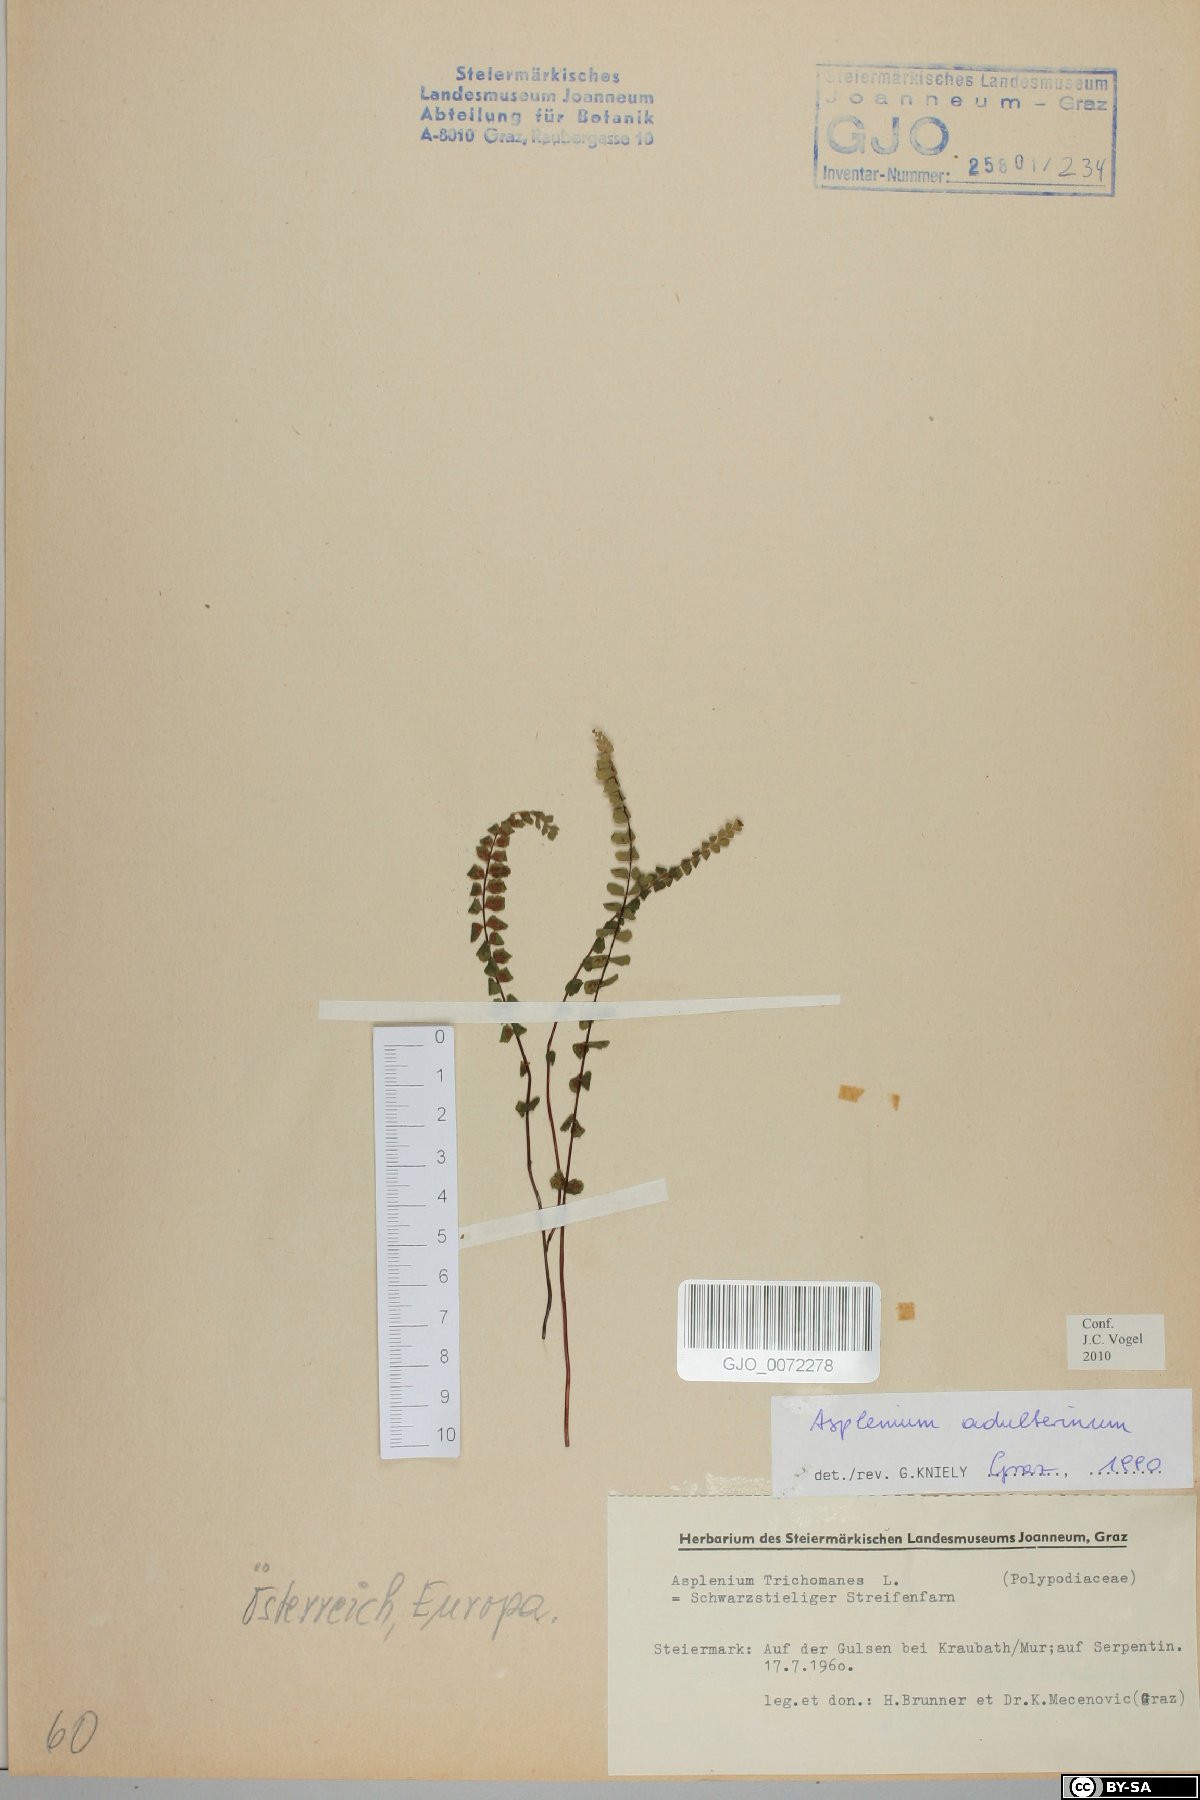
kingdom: Plantae
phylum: Tracheophyta
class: Polypodiopsida
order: Polypodiales
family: Aspleniaceae
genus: Asplenium
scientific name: Asplenium adulterinum
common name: Adulterated spleenwort
